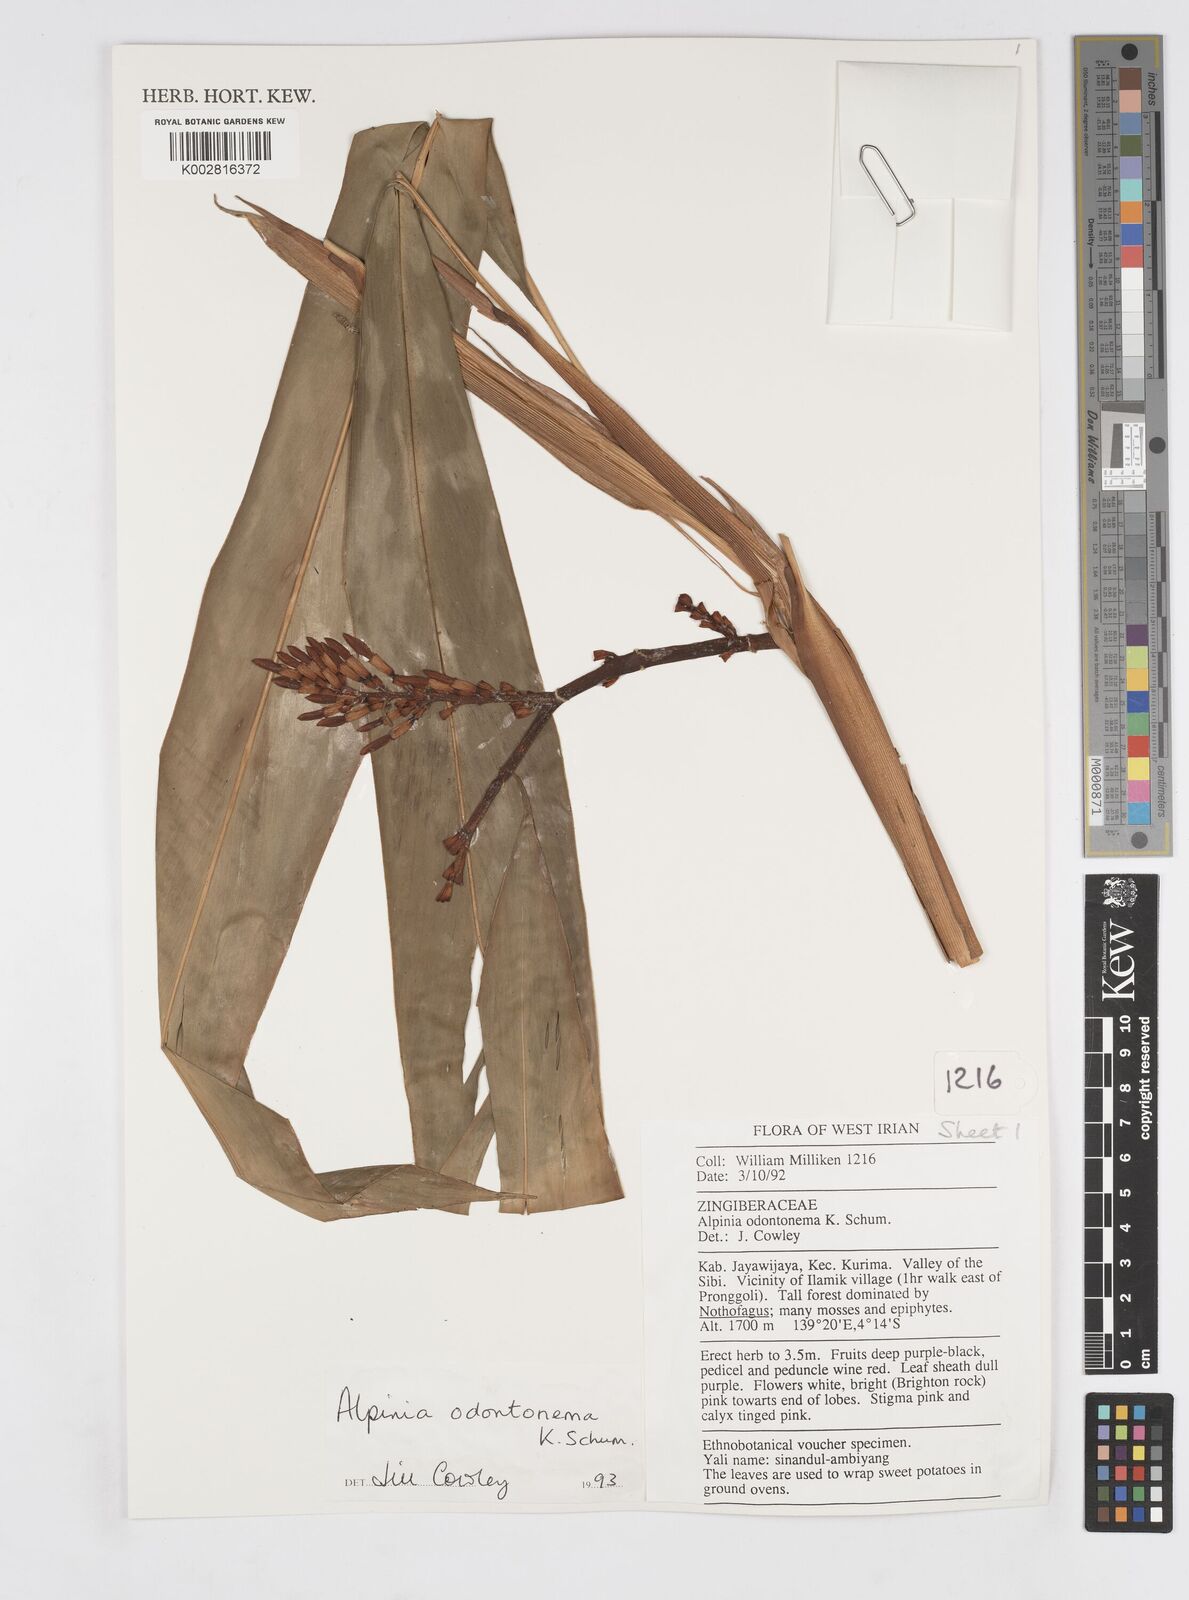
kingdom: Plantae
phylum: Tracheophyta
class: Liliopsida
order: Zingiberales
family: Zingiberaceae
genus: Alpinia
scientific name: Alpinia odontonema
